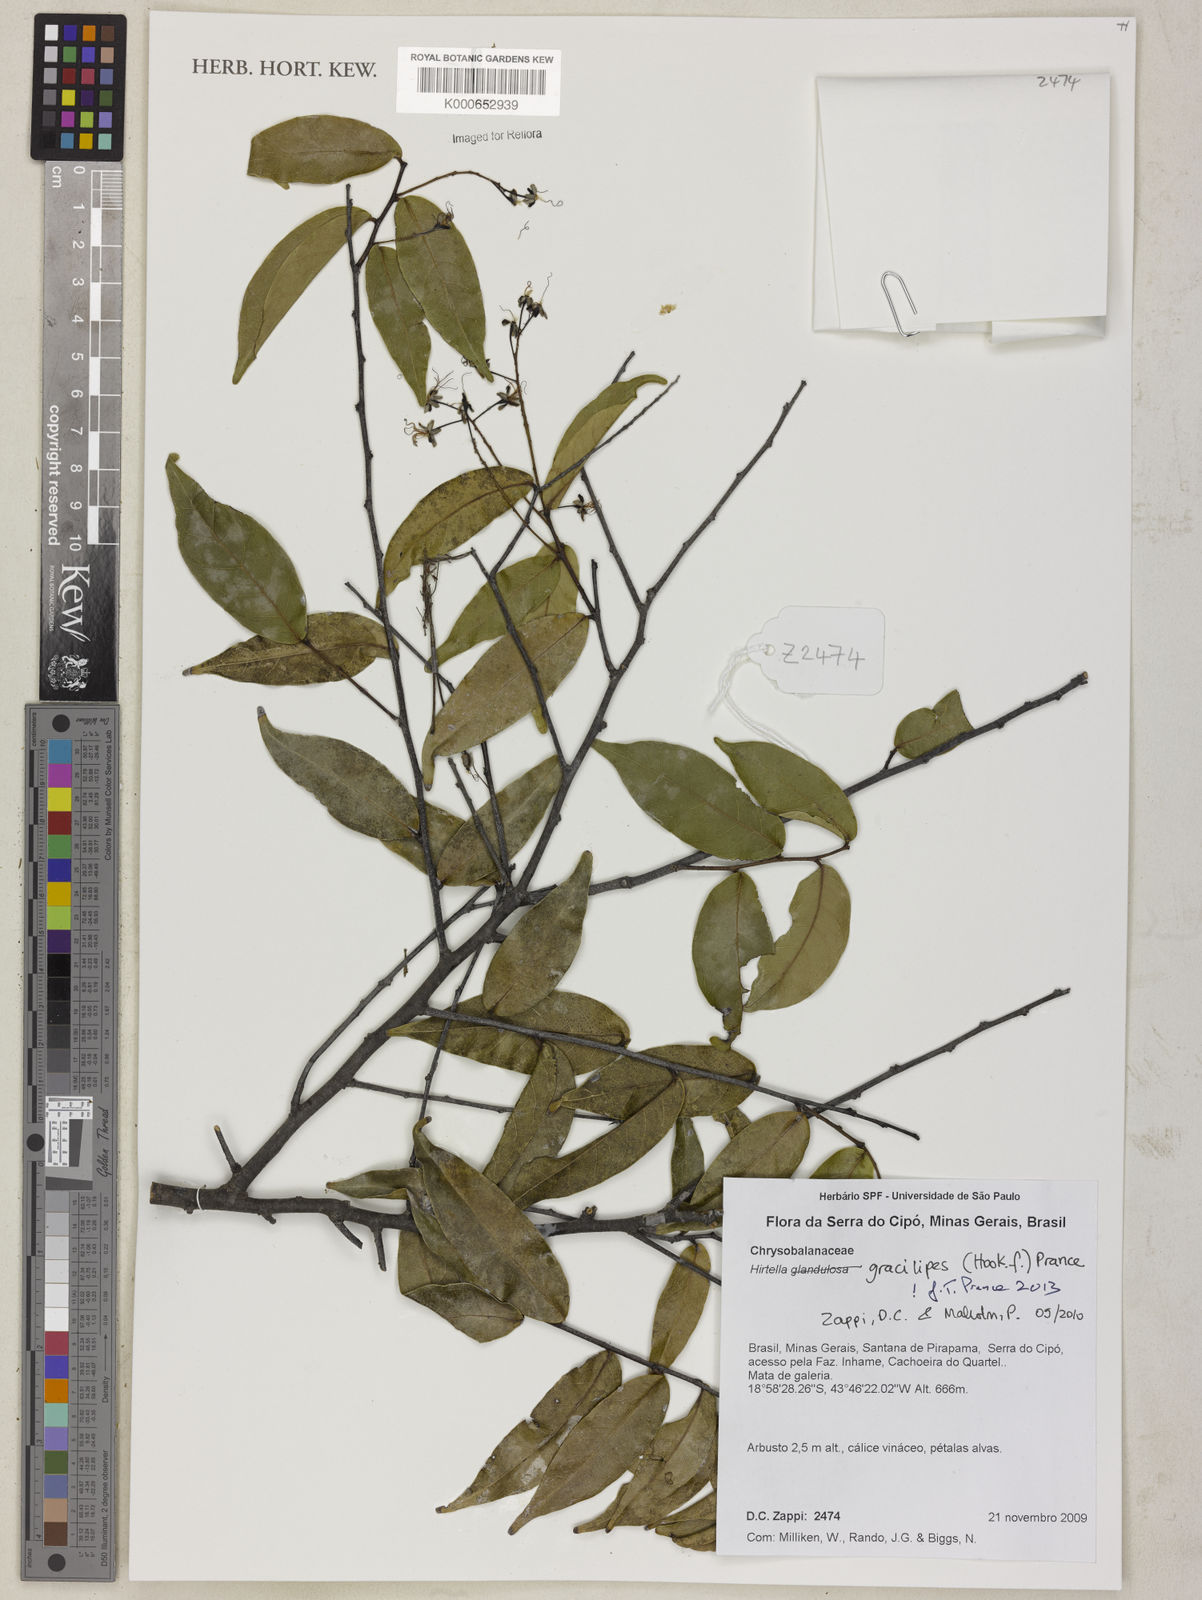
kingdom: Plantae
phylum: Tracheophyta
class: Magnoliopsida
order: Malpighiales
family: Chrysobalanaceae
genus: Hirtella
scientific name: Hirtella gracilipes
